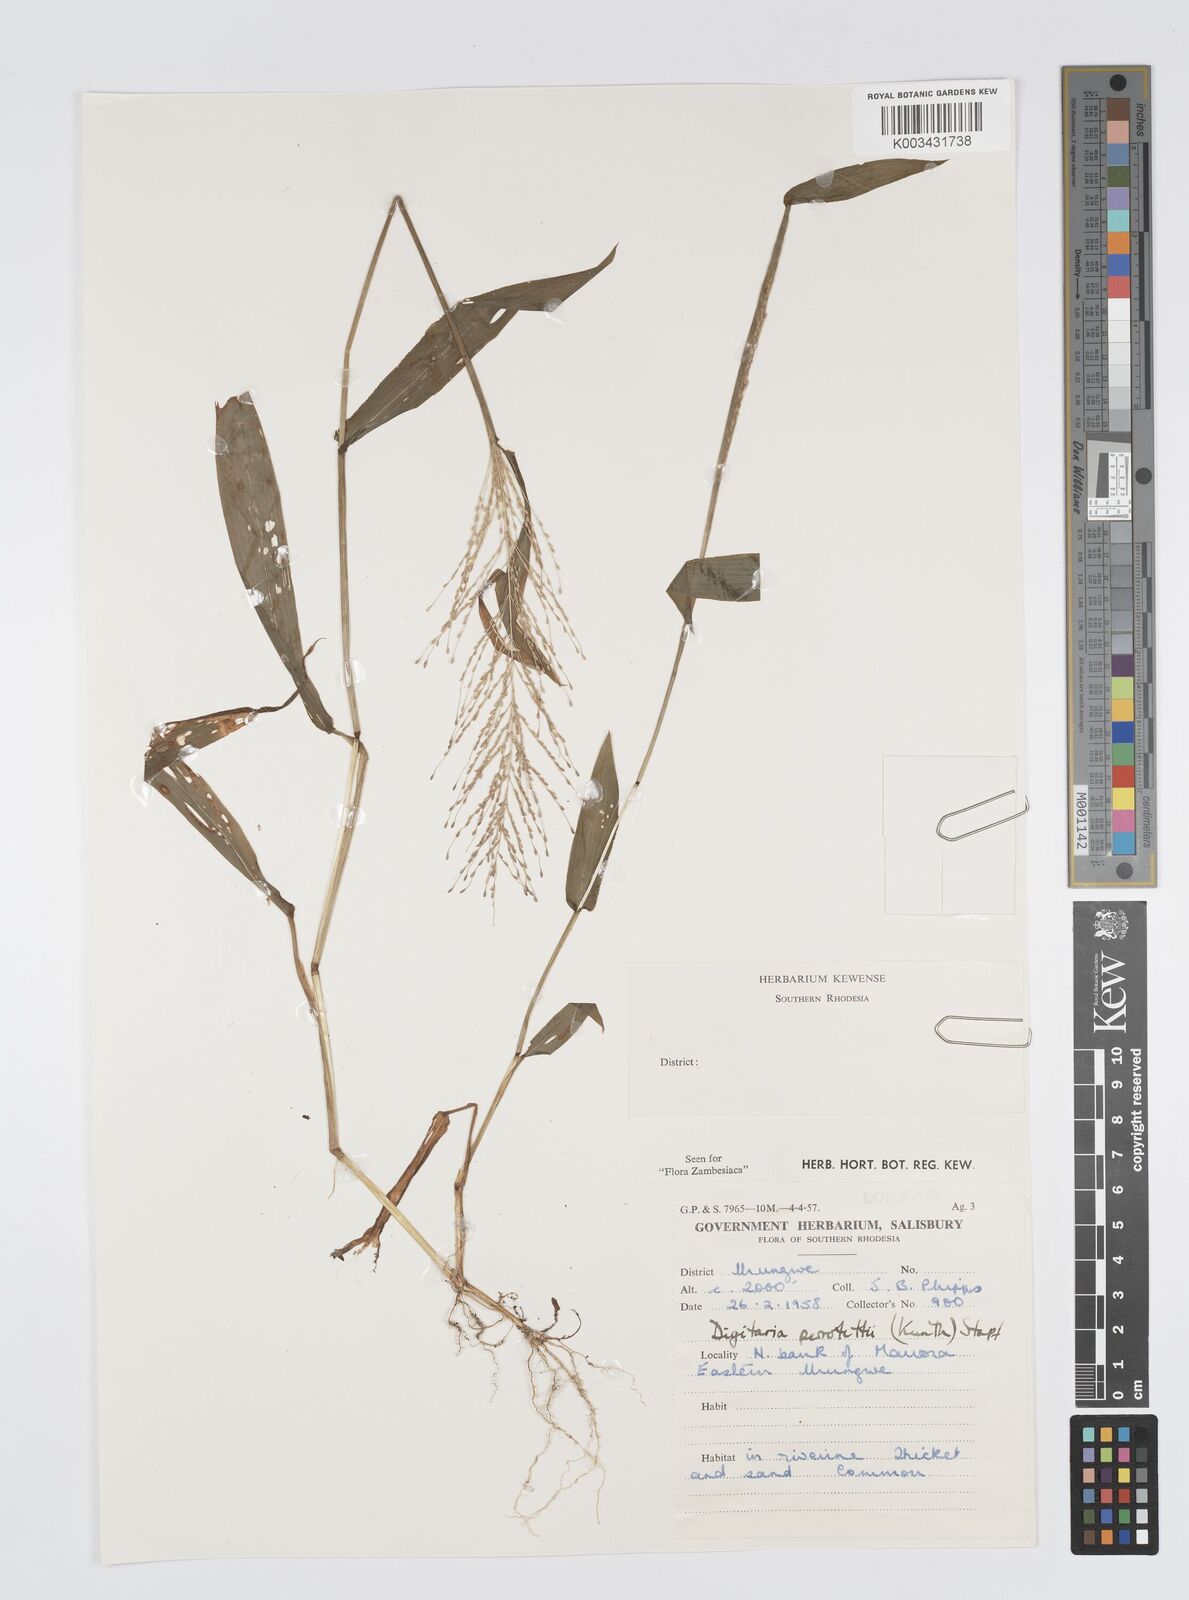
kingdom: Plantae
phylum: Tracheophyta
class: Liliopsida
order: Poales
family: Poaceae
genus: Digitaria
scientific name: Digitaria perrottetii
